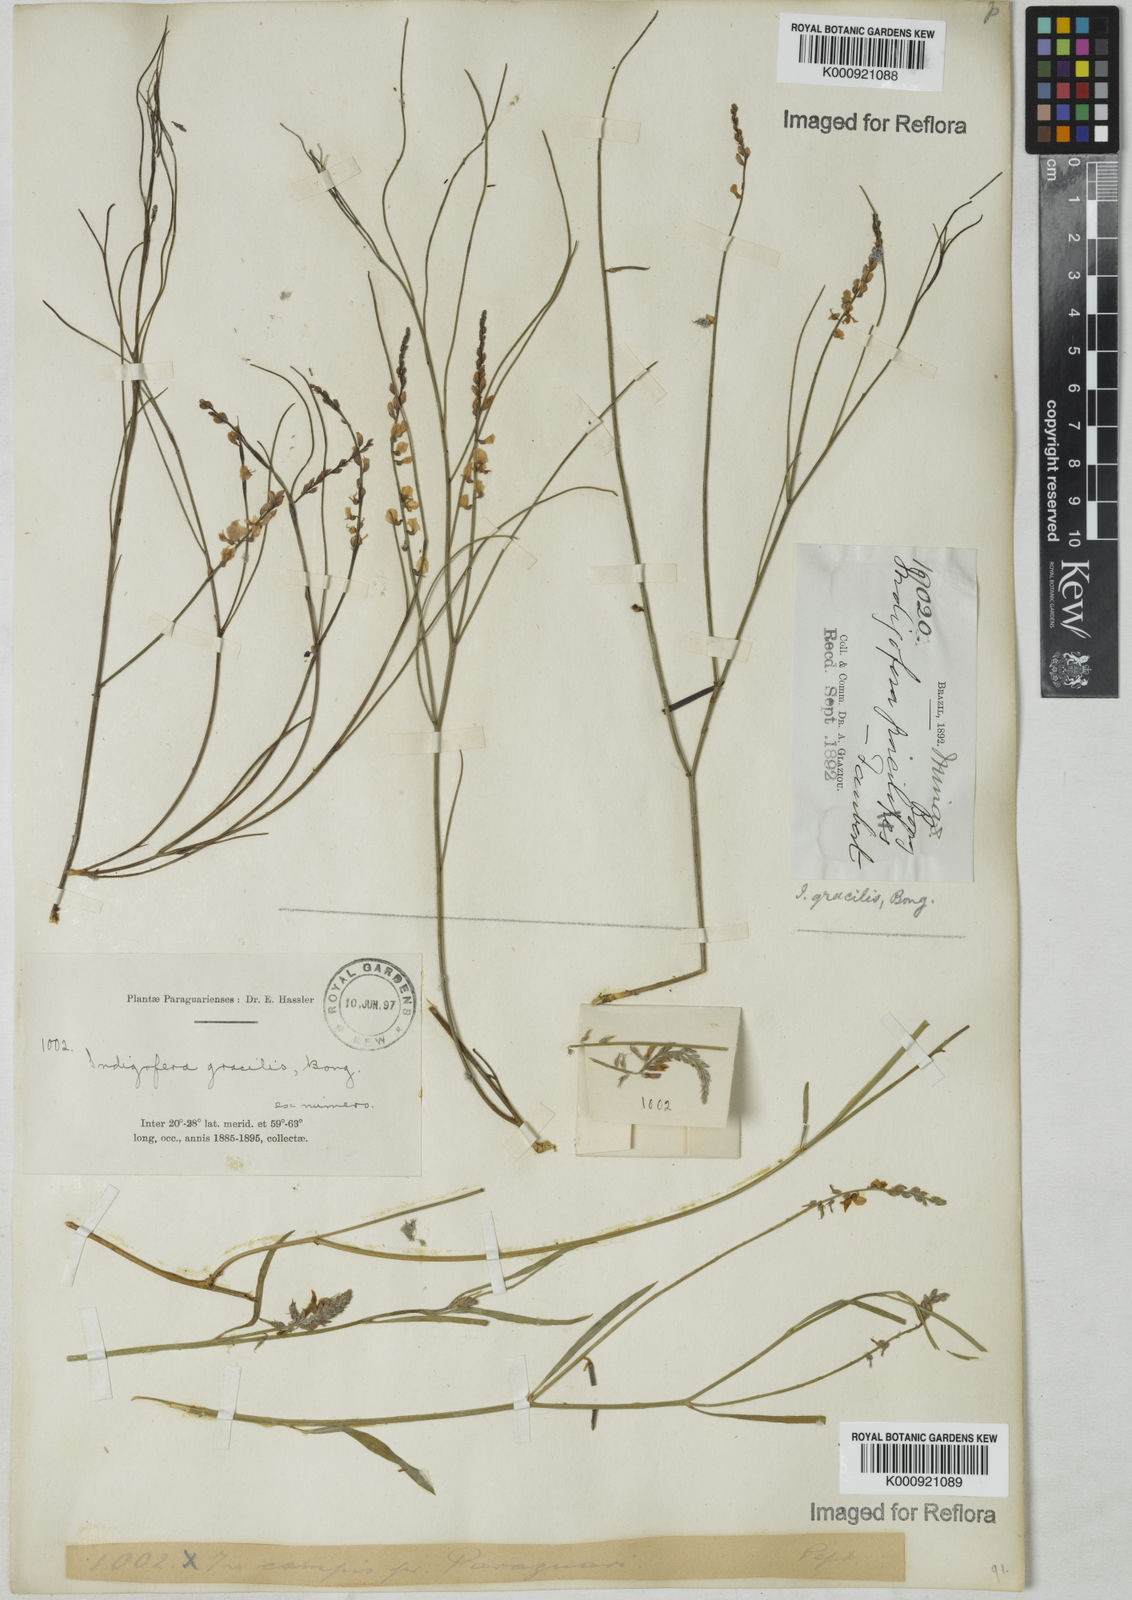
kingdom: Plantae
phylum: Tracheophyta
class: Magnoliopsida
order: Fabales
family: Fabaceae
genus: Indigofera
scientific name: Indigofera bongardiana
